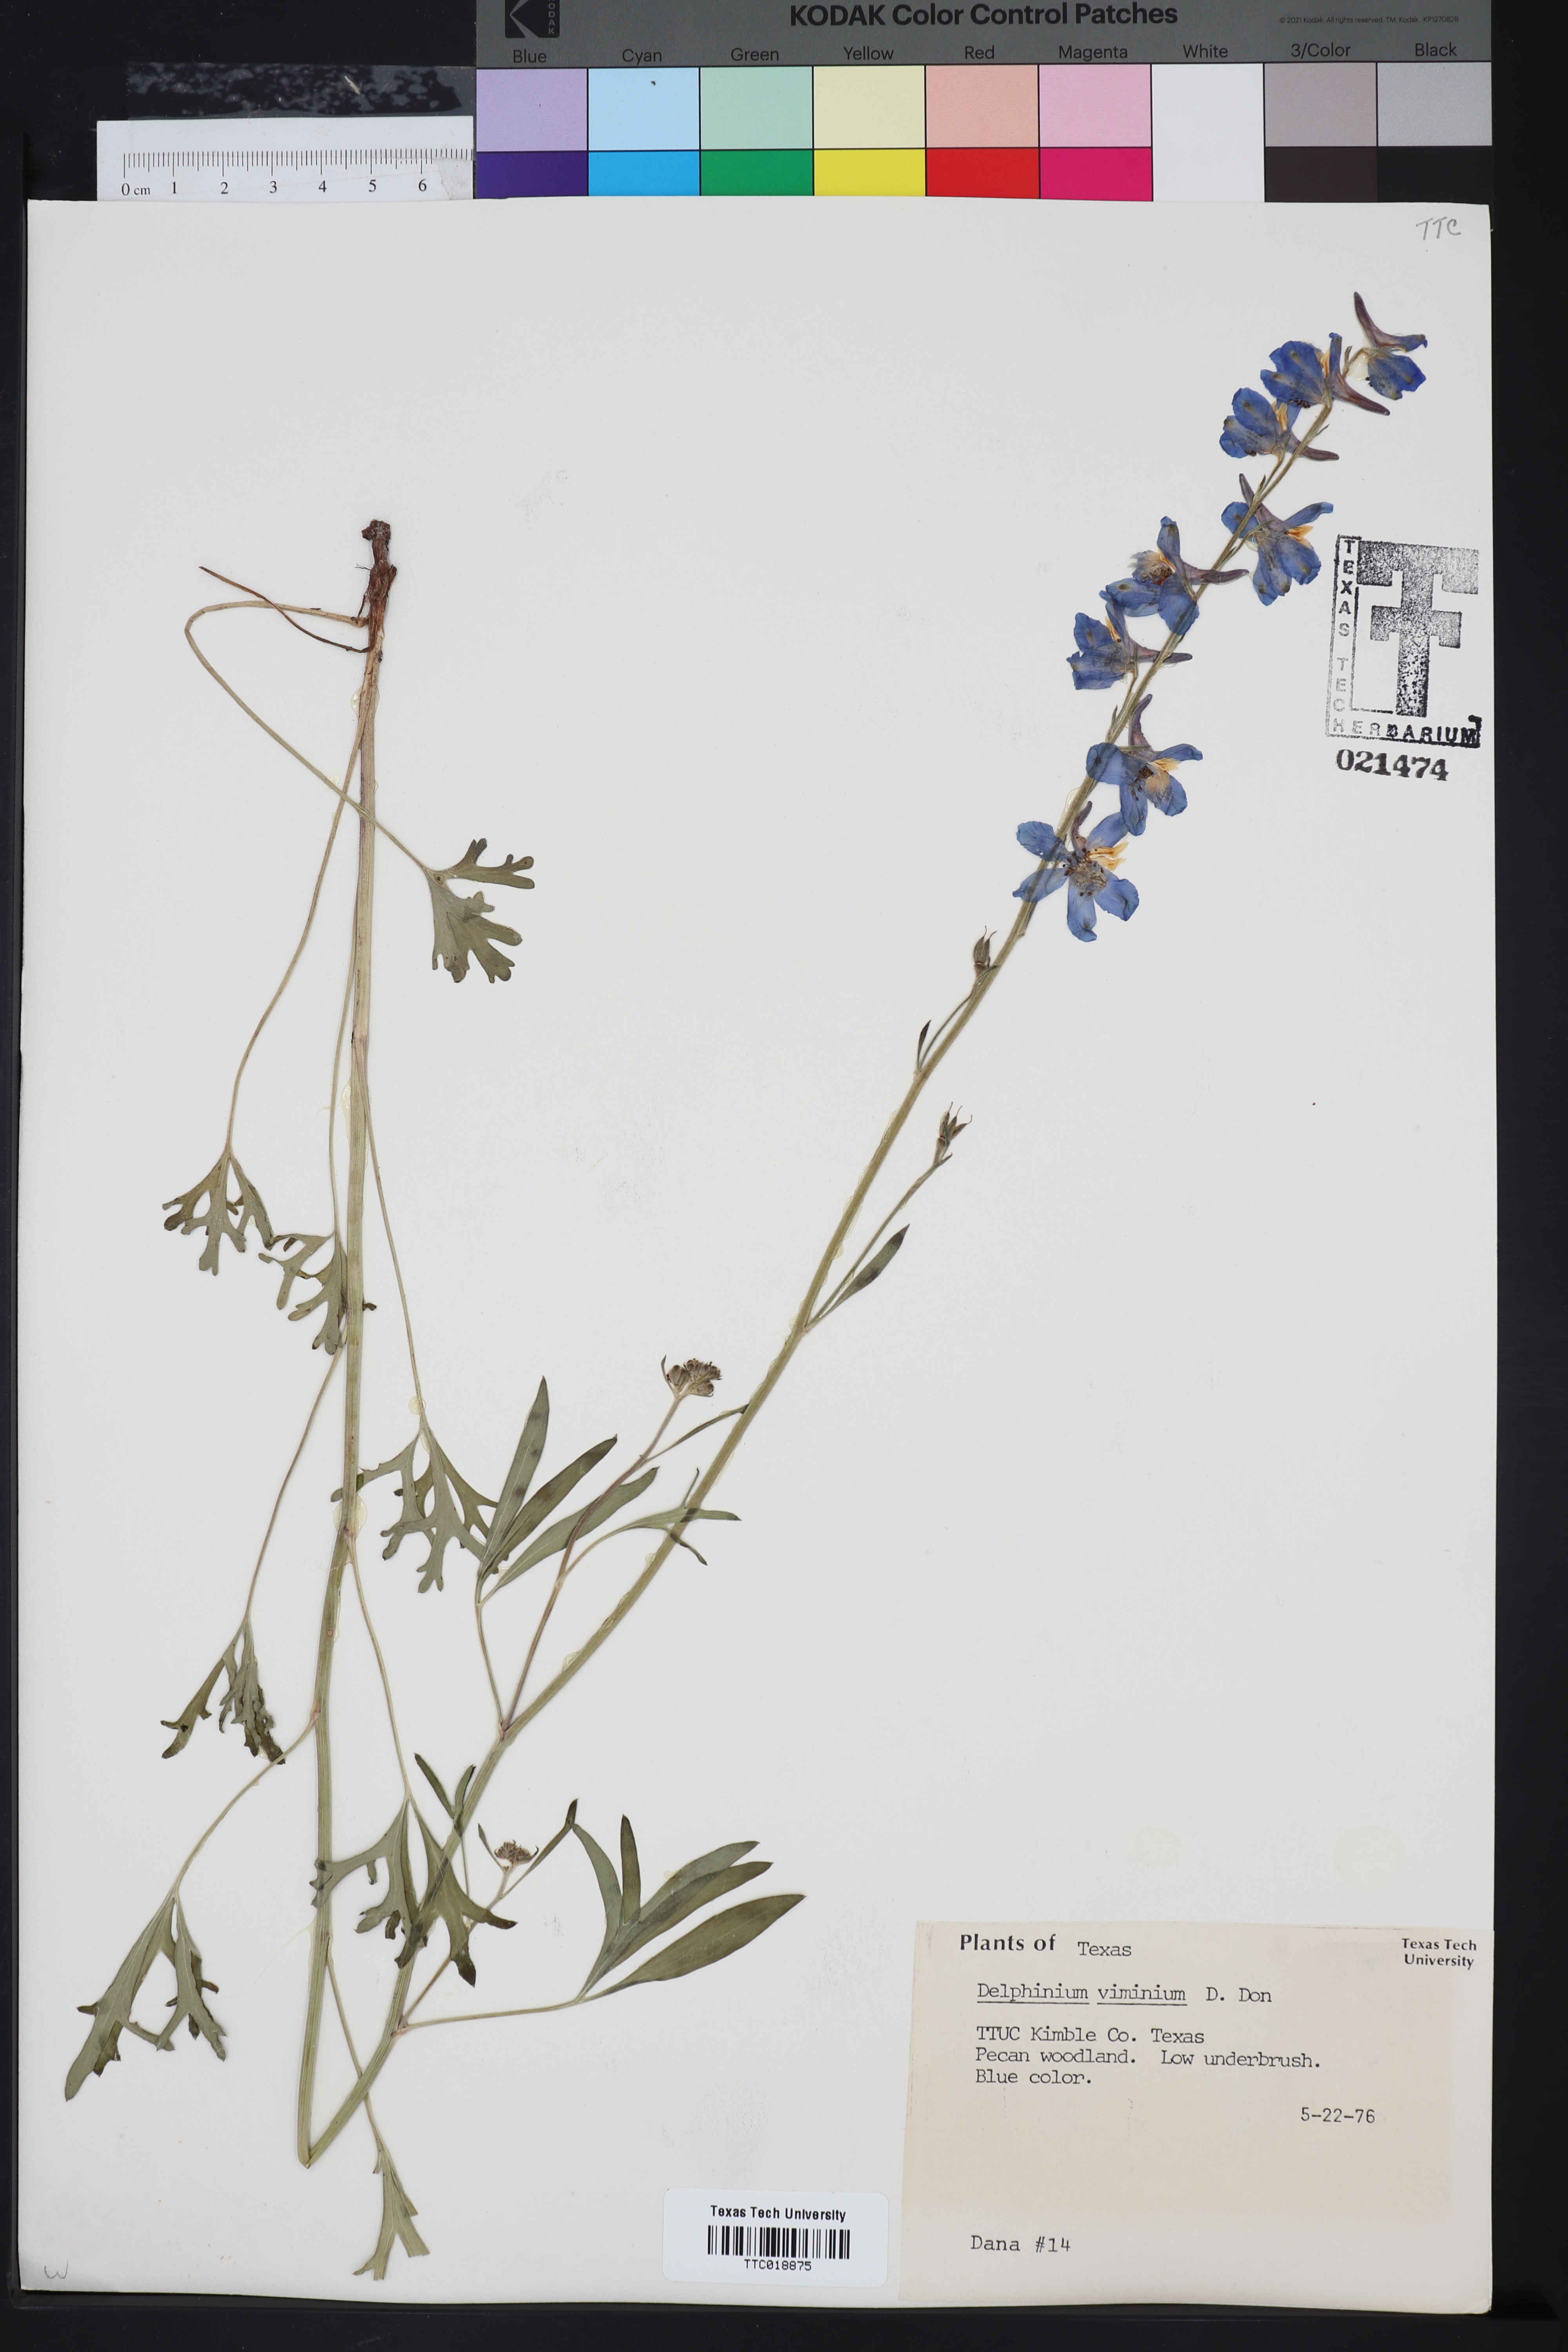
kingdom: Plantae
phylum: Tracheophyta
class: Magnoliopsida
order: Ranunculales
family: Ranunculaceae
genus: Delphinium
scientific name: Delphinium carolinianum
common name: Carolina larkspur
